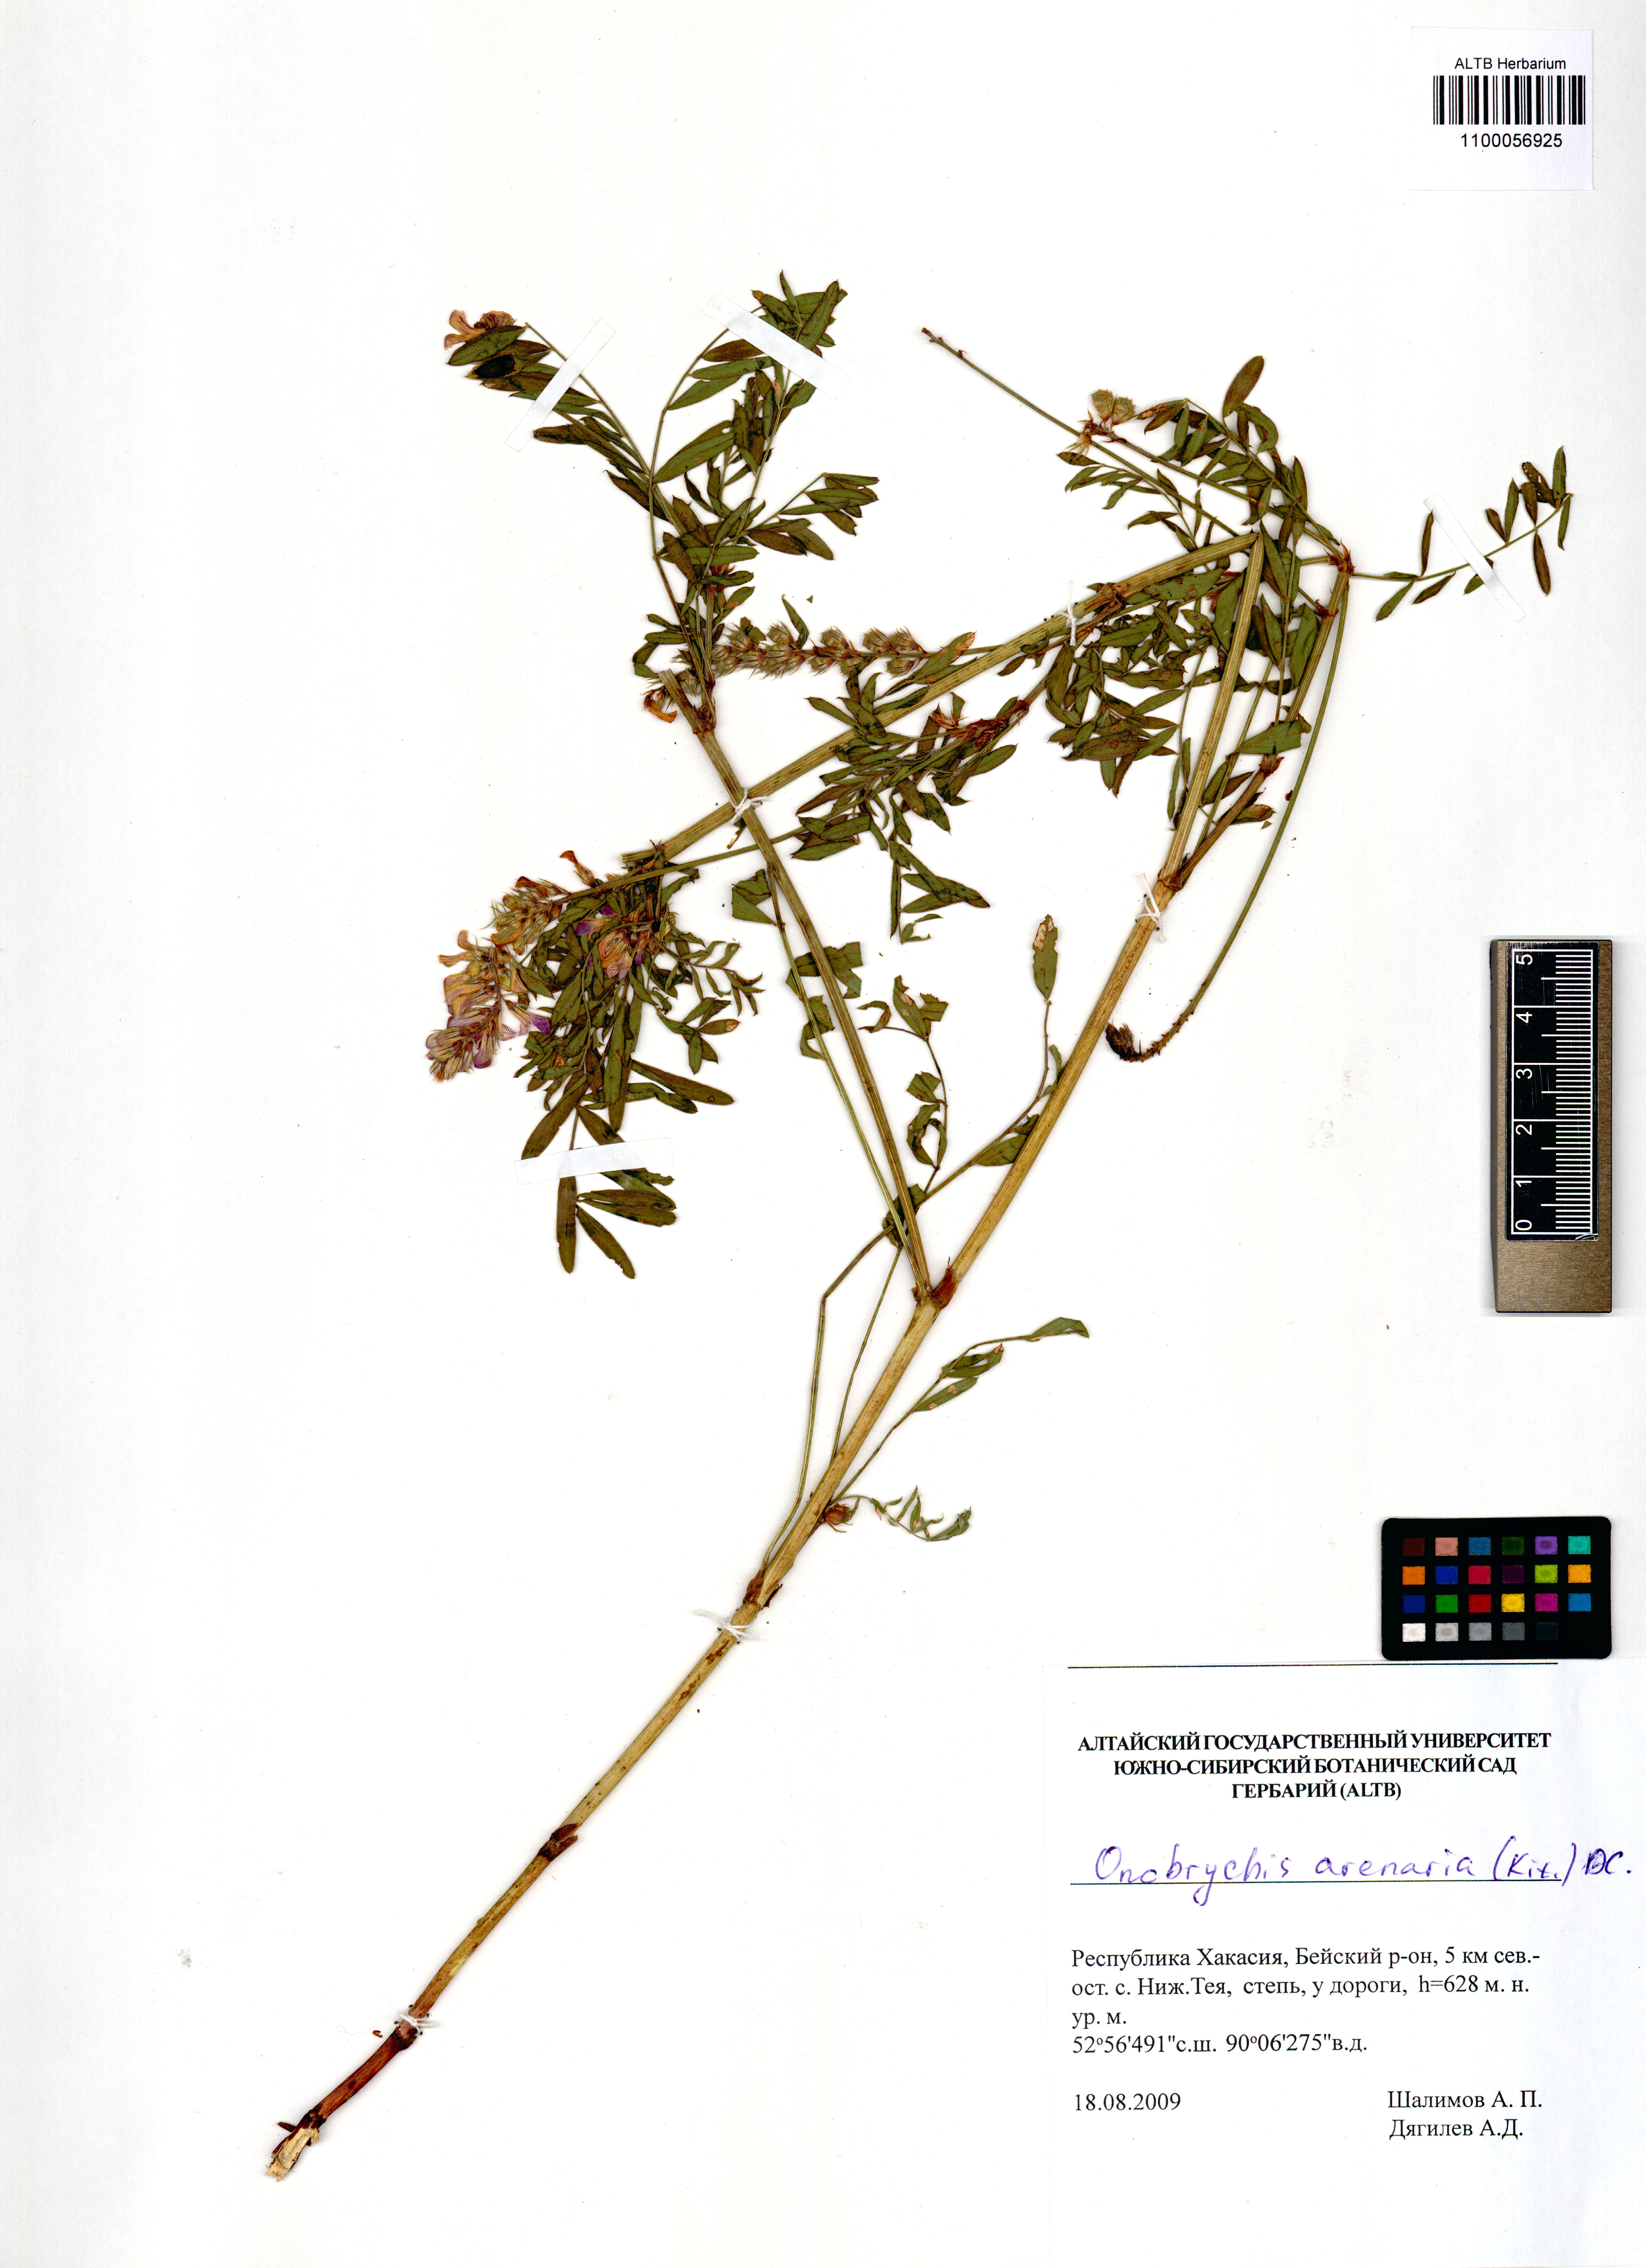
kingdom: Plantae
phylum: Tracheophyta
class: Magnoliopsida
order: Fabales
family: Fabaceae
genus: Onobrychis
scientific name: Onobrychis arenaria
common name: Sand esparcet
